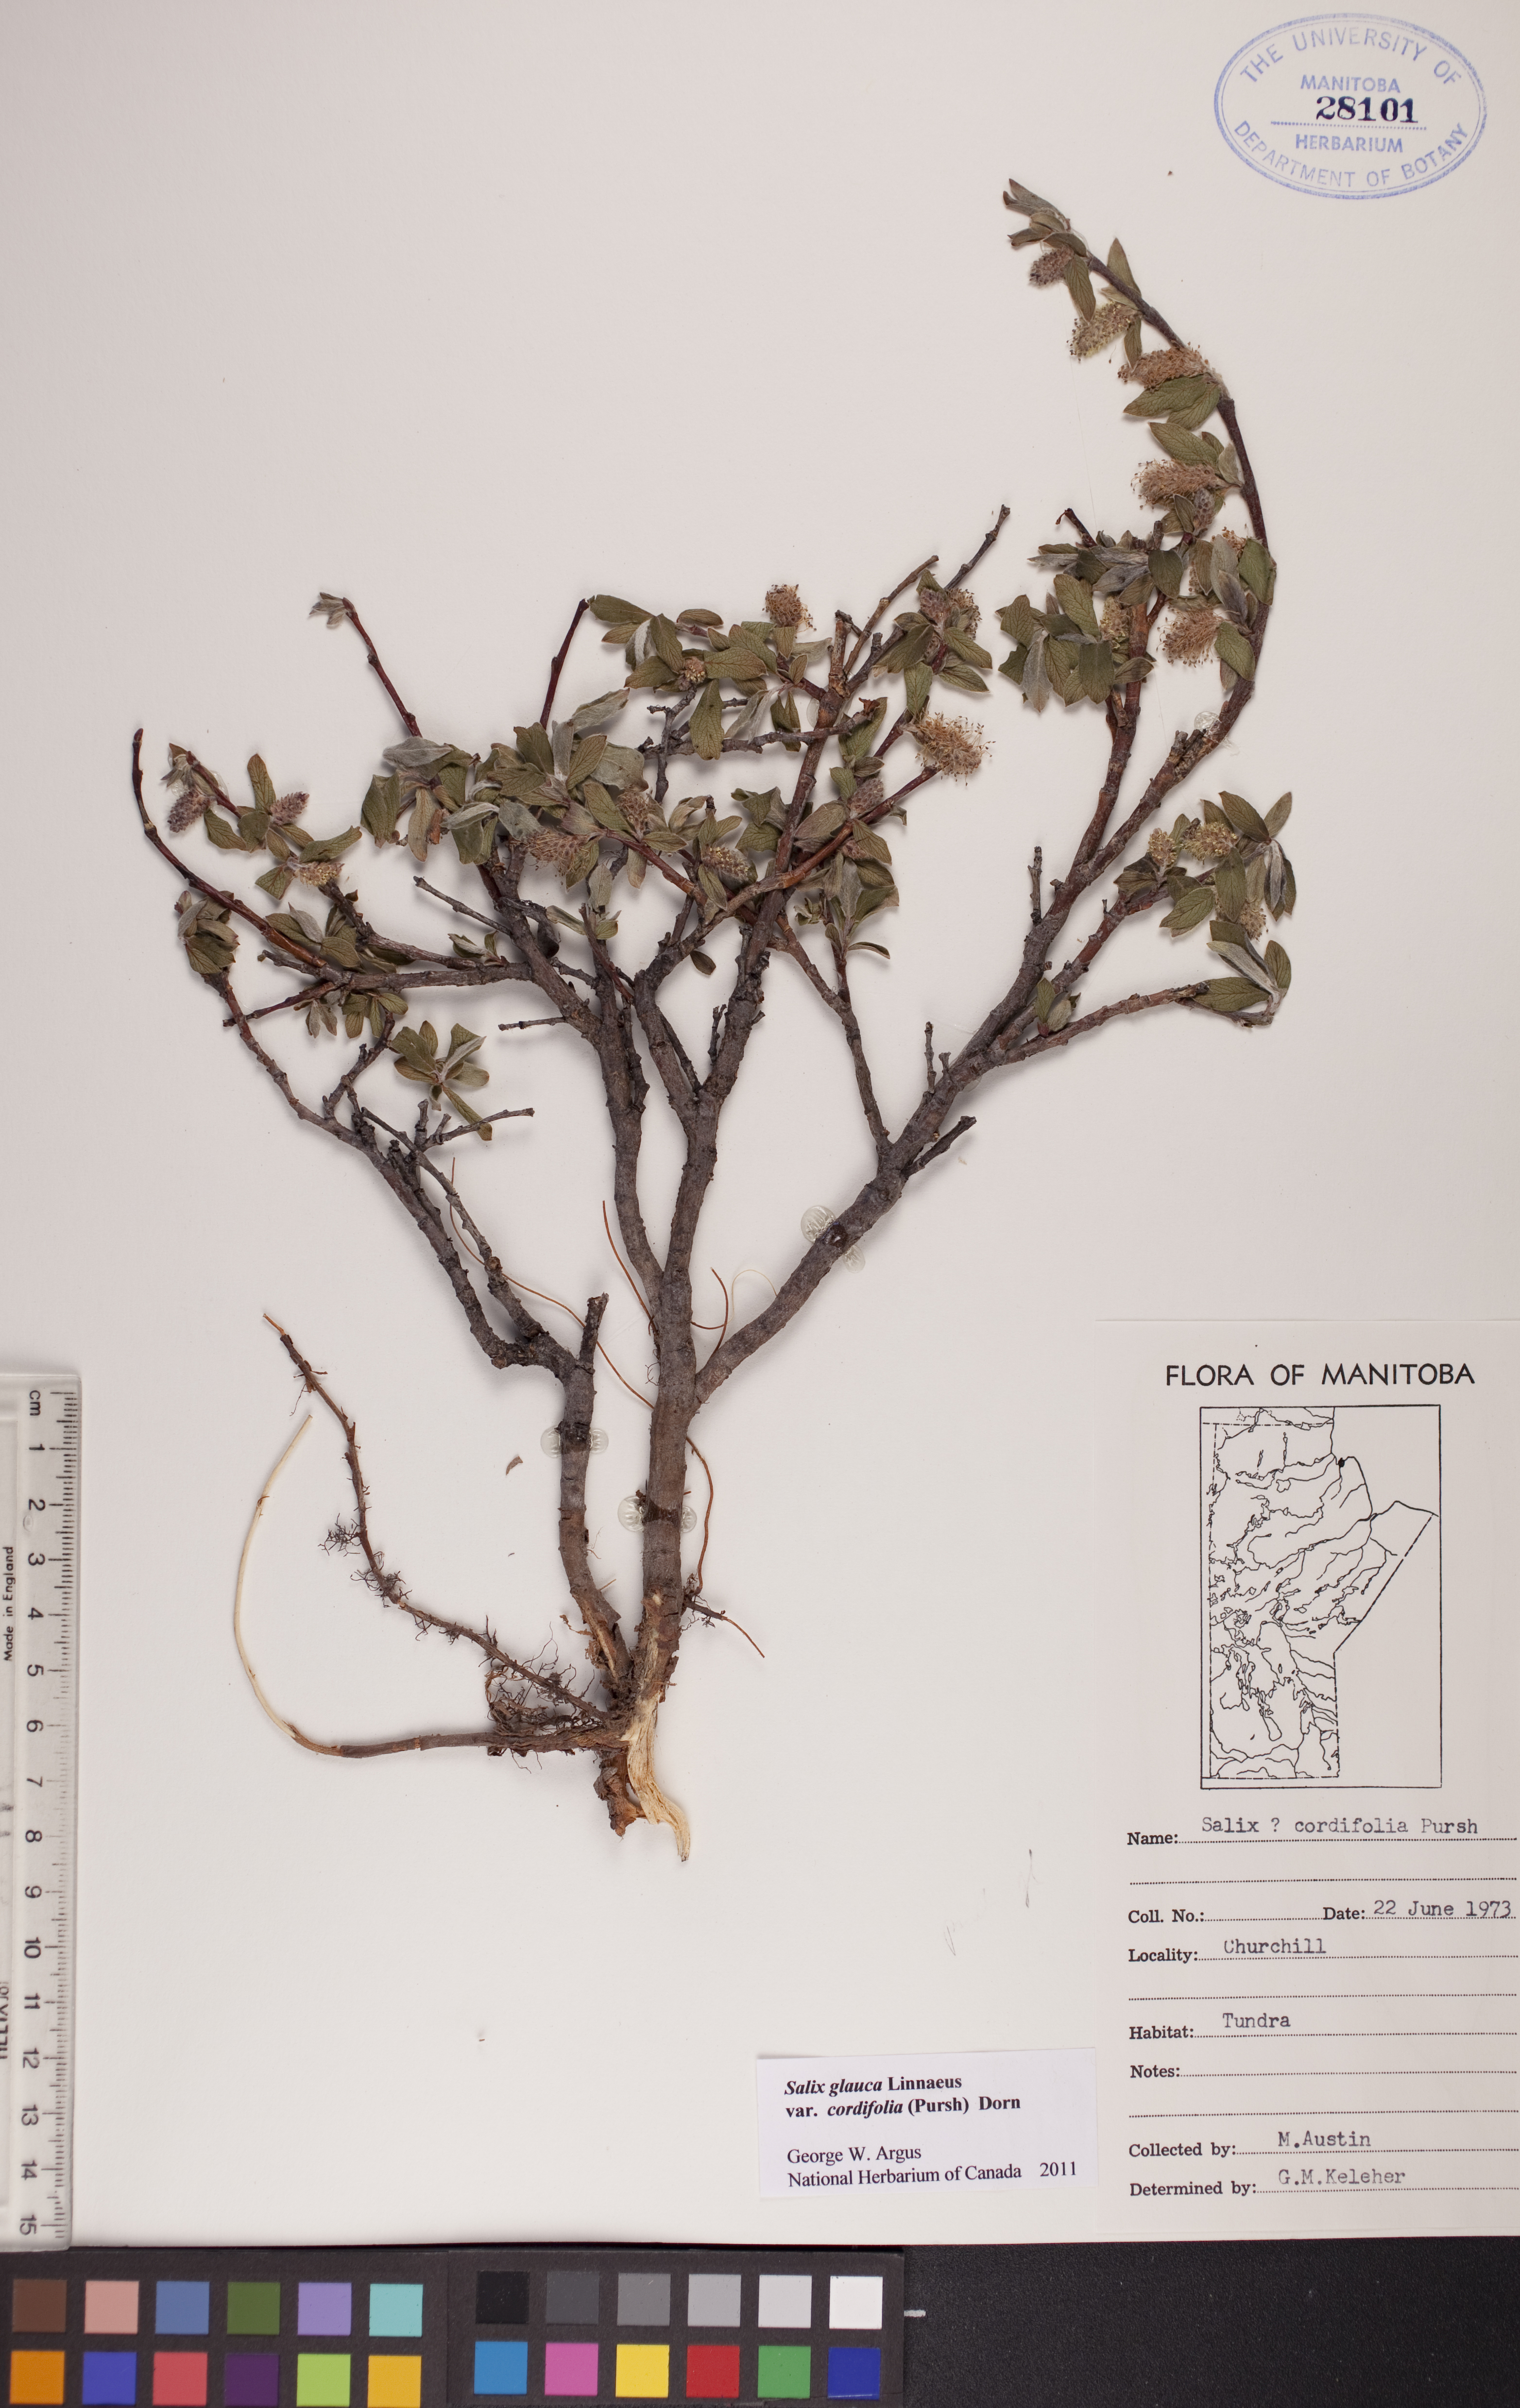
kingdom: Plantae
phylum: Tracheophyta
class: Magnoliopsida
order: Malpighiales
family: Salicaceae
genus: Salix
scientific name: Salix glauca
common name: Glaucous willow
